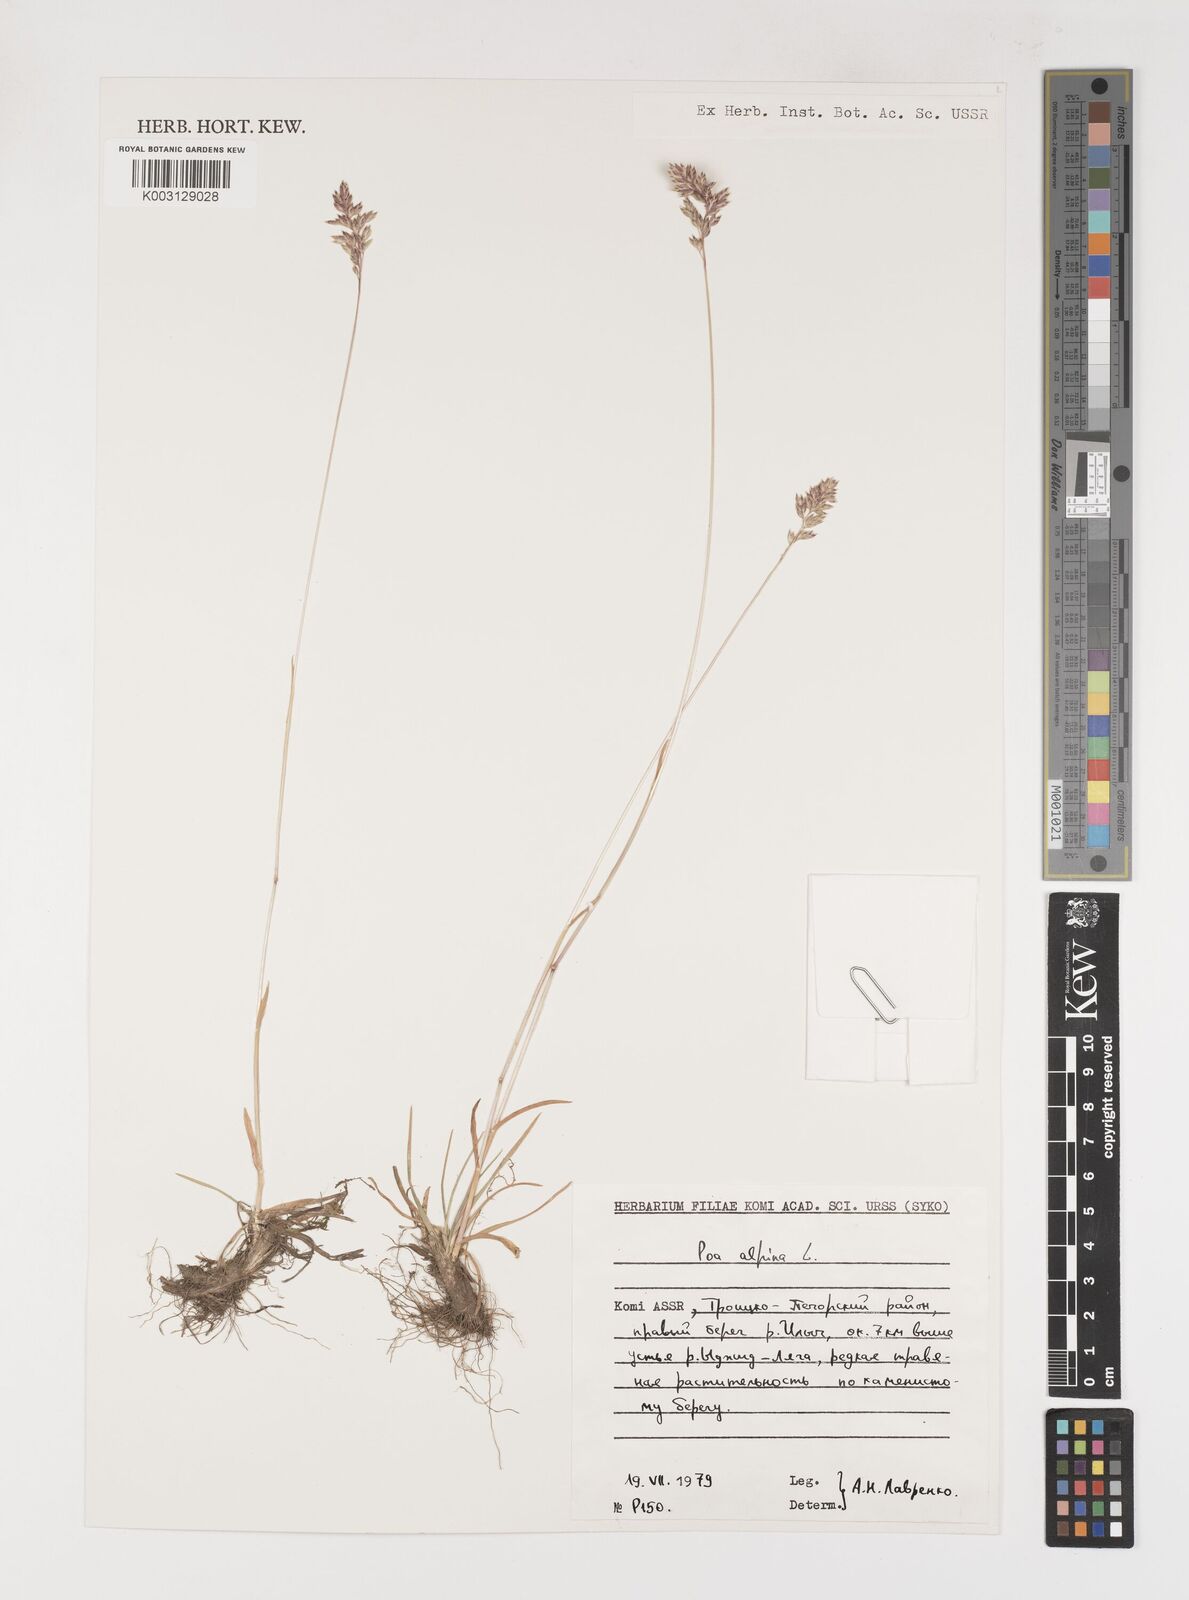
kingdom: Plantae
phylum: Tracheophyta
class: Liliopsida
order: Poales
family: Poaceae
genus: Poa
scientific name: Poa alpina
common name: Alpine bluegrass
